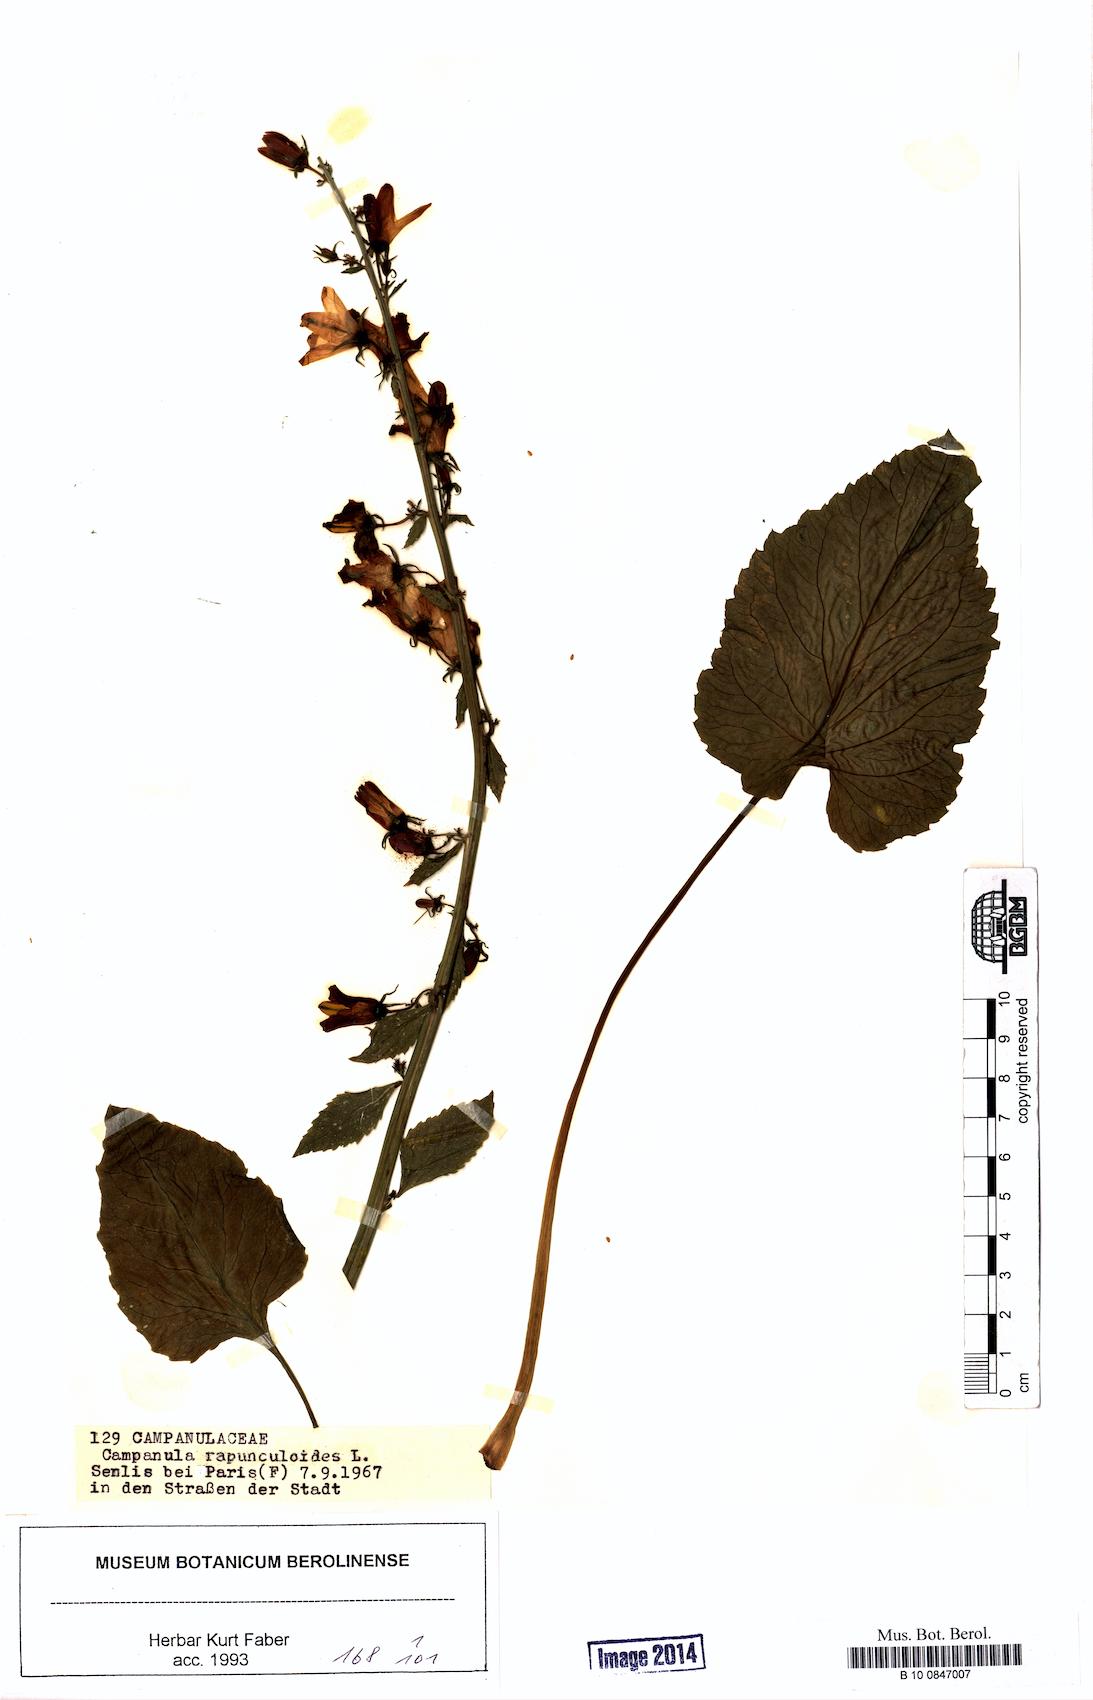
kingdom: Plantae
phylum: Tracheophyta
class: Magnoliopsida
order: Asterales
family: Campanulaceae
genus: Campanula
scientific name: Campanula rapunculoides
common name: Creeping bellflower
